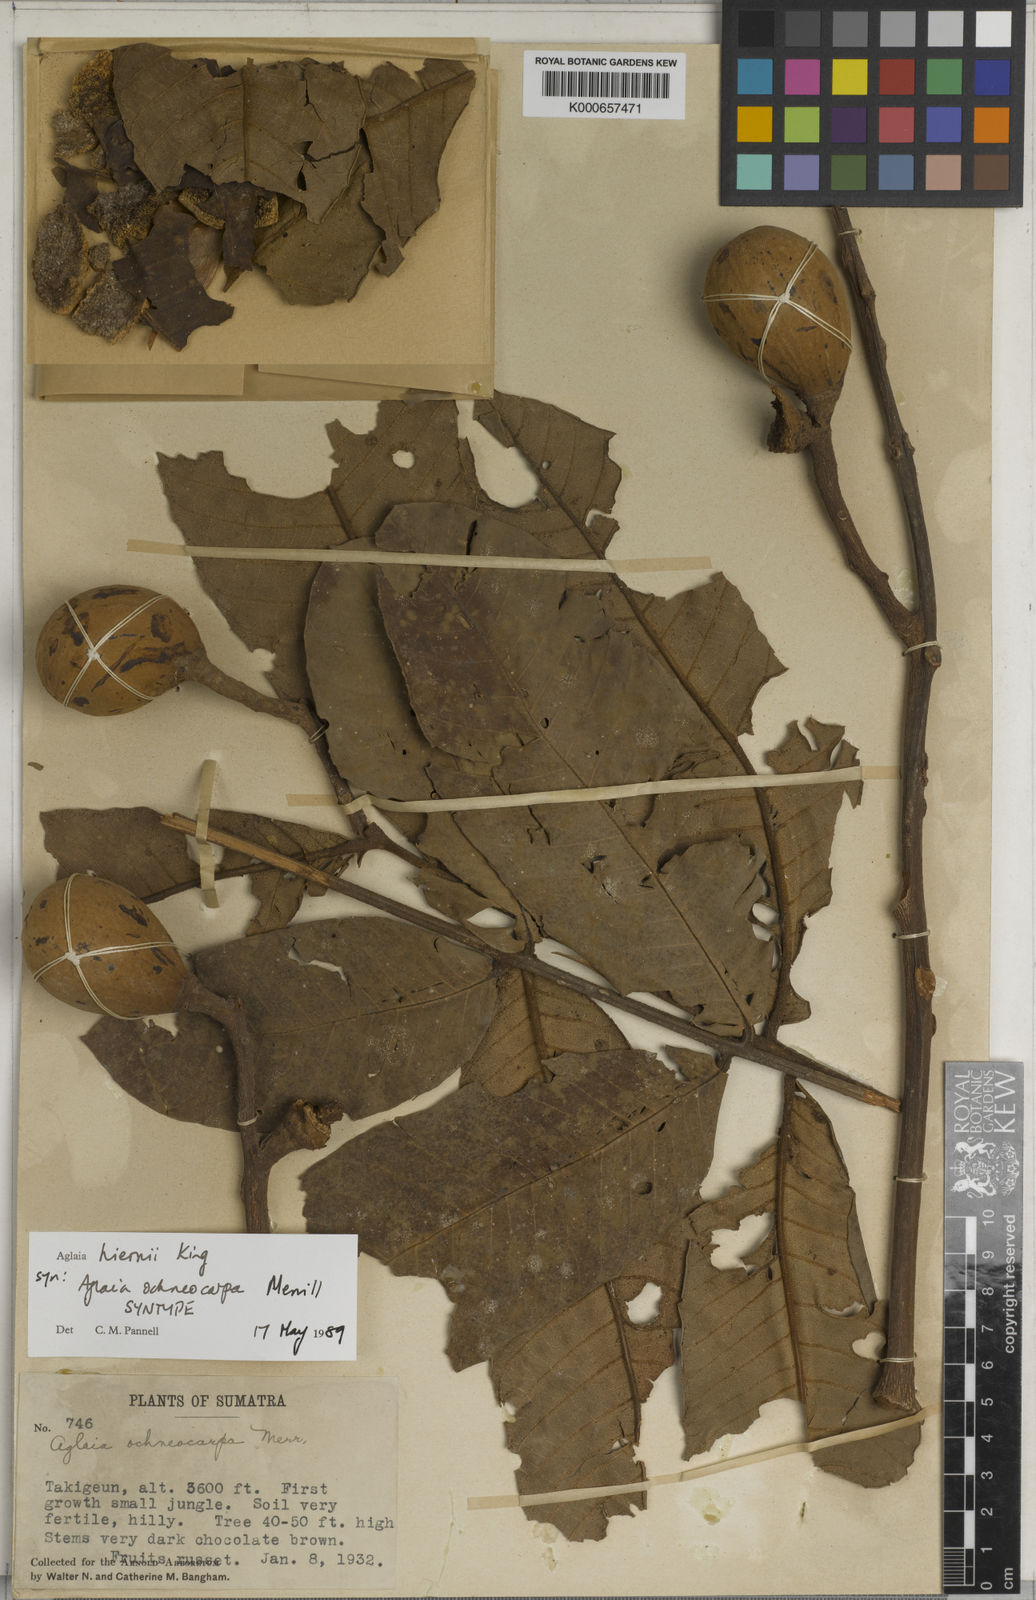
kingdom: Plantae
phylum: Tracheophyta
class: Magnoliopsida
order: Sapindales
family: Meliaceae
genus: Aglaia
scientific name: Aglaia hiernii
